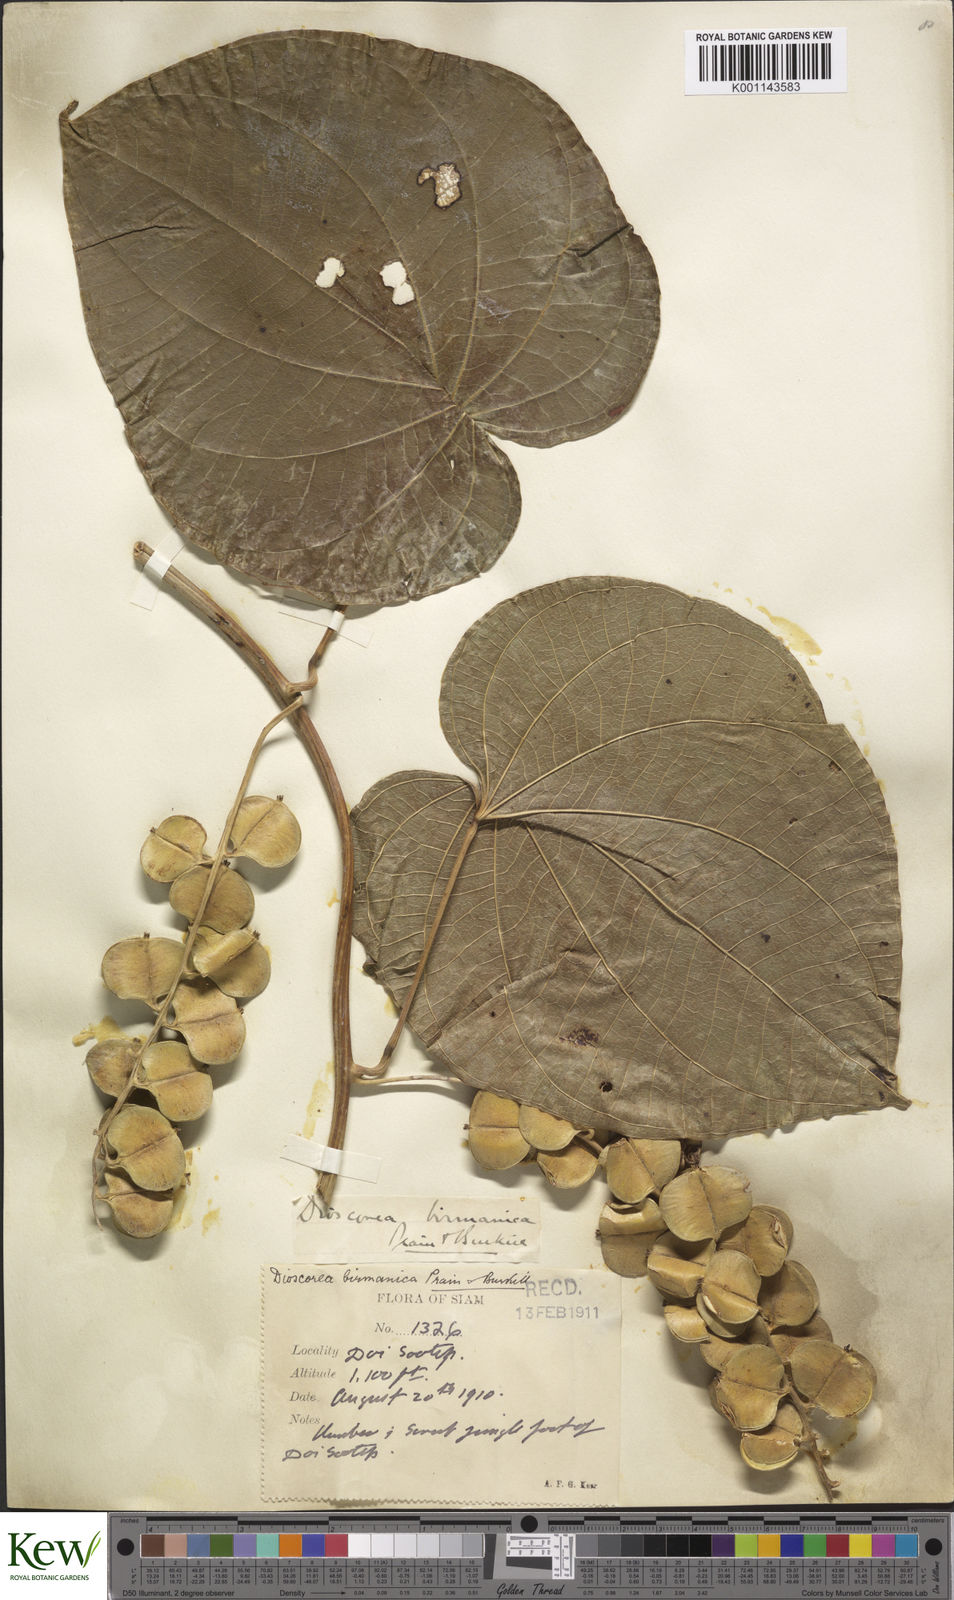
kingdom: Plantae
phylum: Tracheophyta
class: Liliopsida
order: Dioscoreales
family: Dioscoreaceae
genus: Dioscorea
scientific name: Dioscorea birmanica
